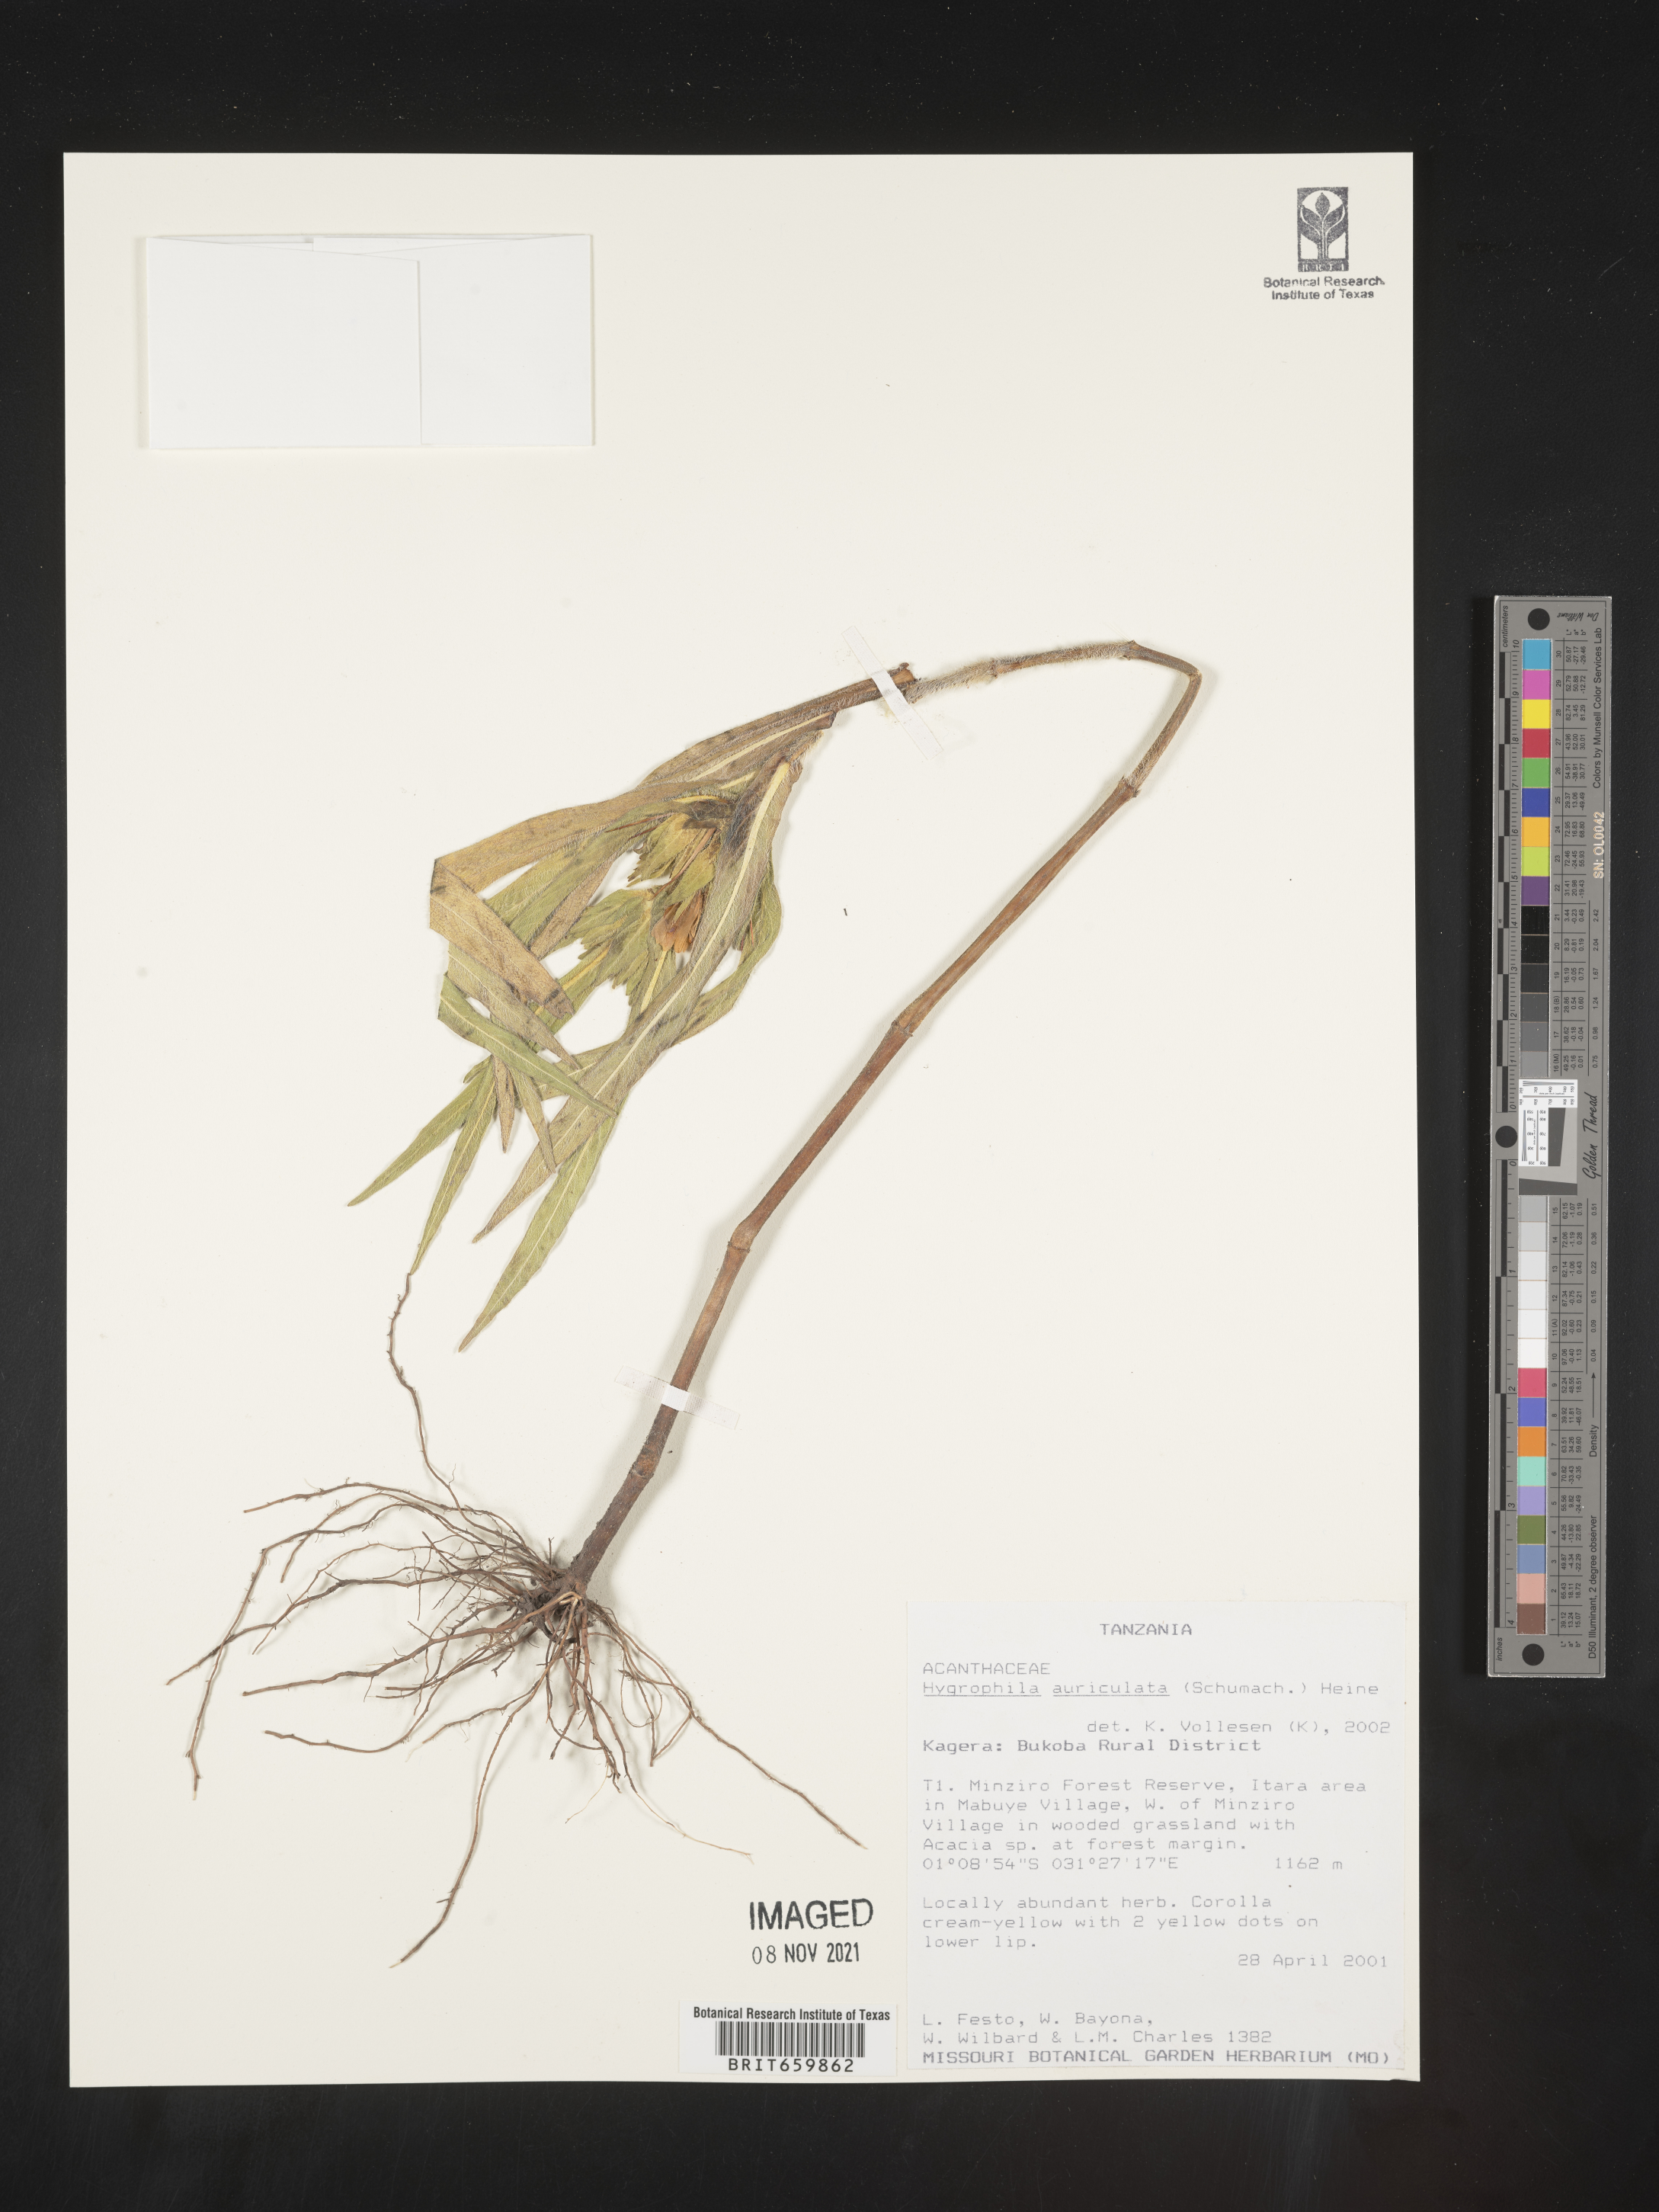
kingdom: Plantae
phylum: Tracheophyta
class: Magnoliopsida
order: Lamiales
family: Acanthaceae
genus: Hygrophila
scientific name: Hygrophila
